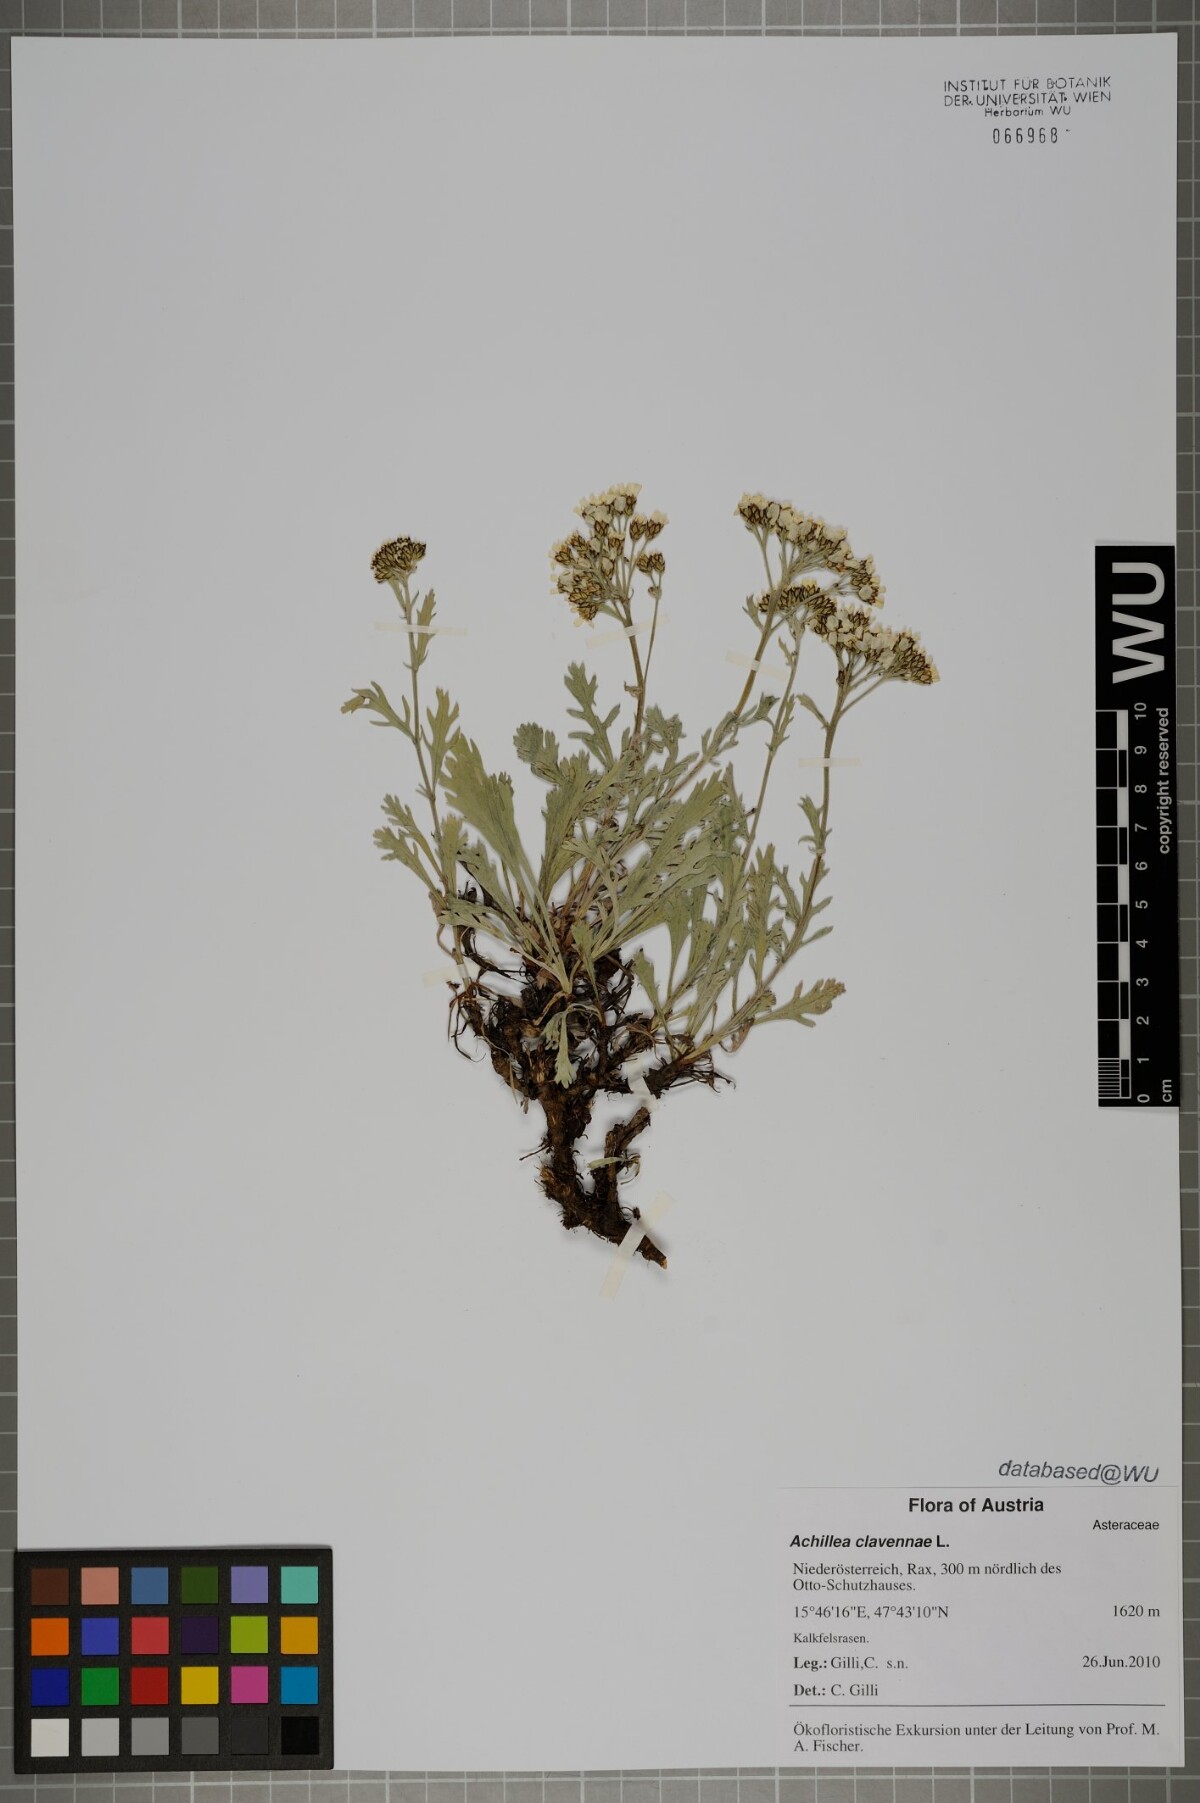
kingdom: Plantae
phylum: Tracheophyta
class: Magnoliopsida
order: Asterales
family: Asteraceae
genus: Achillea
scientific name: Achillea clavennae
